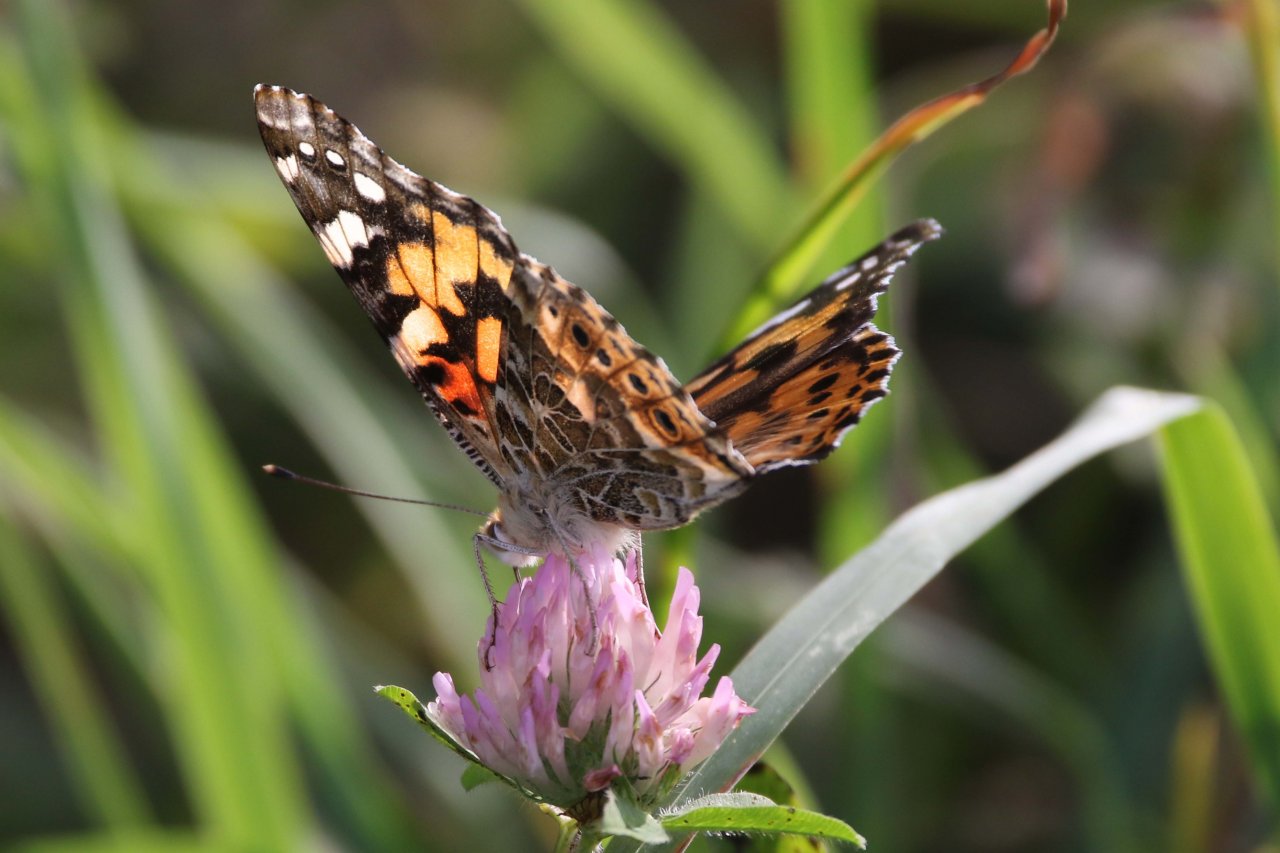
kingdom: Animalia
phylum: Arthropoda
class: Insecta
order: Lepidoptera
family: Nymphalidae
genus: Vanessa
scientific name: Vanessa cardui
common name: Painted Lady
